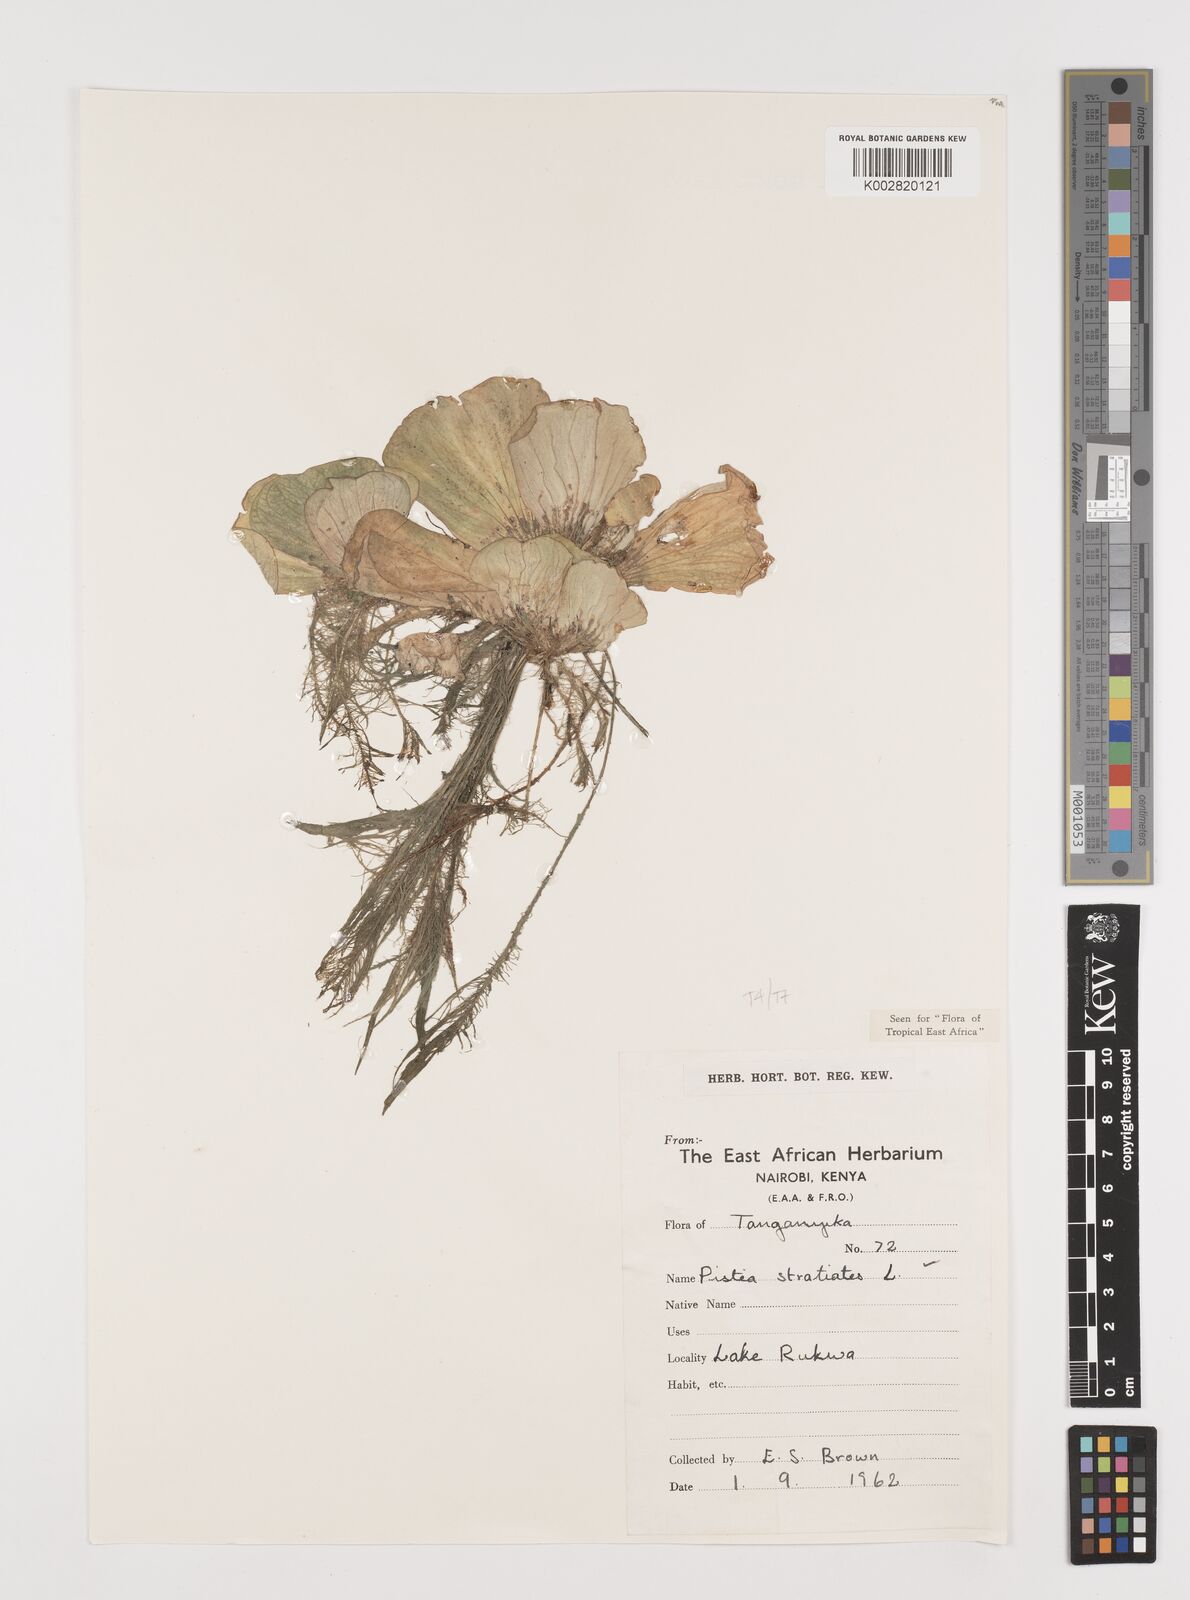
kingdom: Plantae
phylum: Tracheophyta
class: Liliopsida
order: Alismatales
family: Araceae
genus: Pistia
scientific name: Pistia stratiotes
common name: Water lettuce
